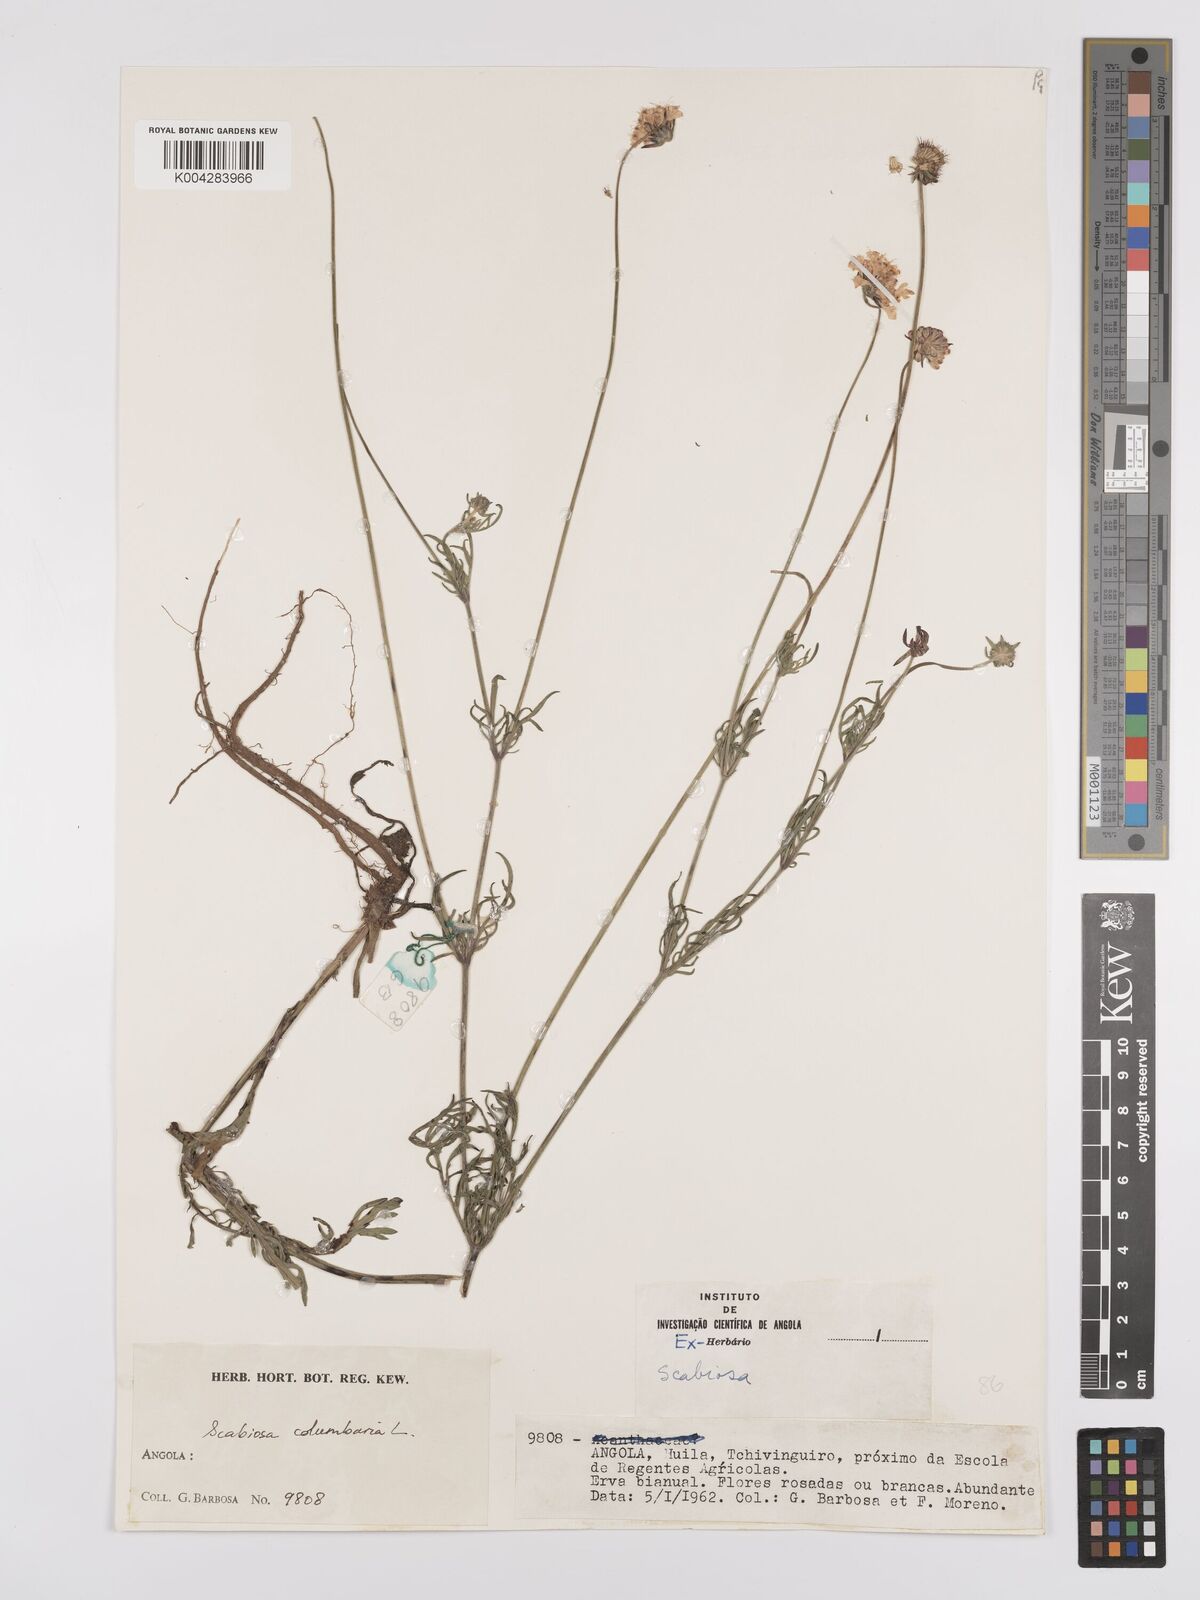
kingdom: Plantae
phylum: Tracheophyta
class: Magnoliopsida
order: Dipsacales
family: Caprifoliaceae
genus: Scabiosa
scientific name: Scabiosa columbaria
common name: Small scabious
